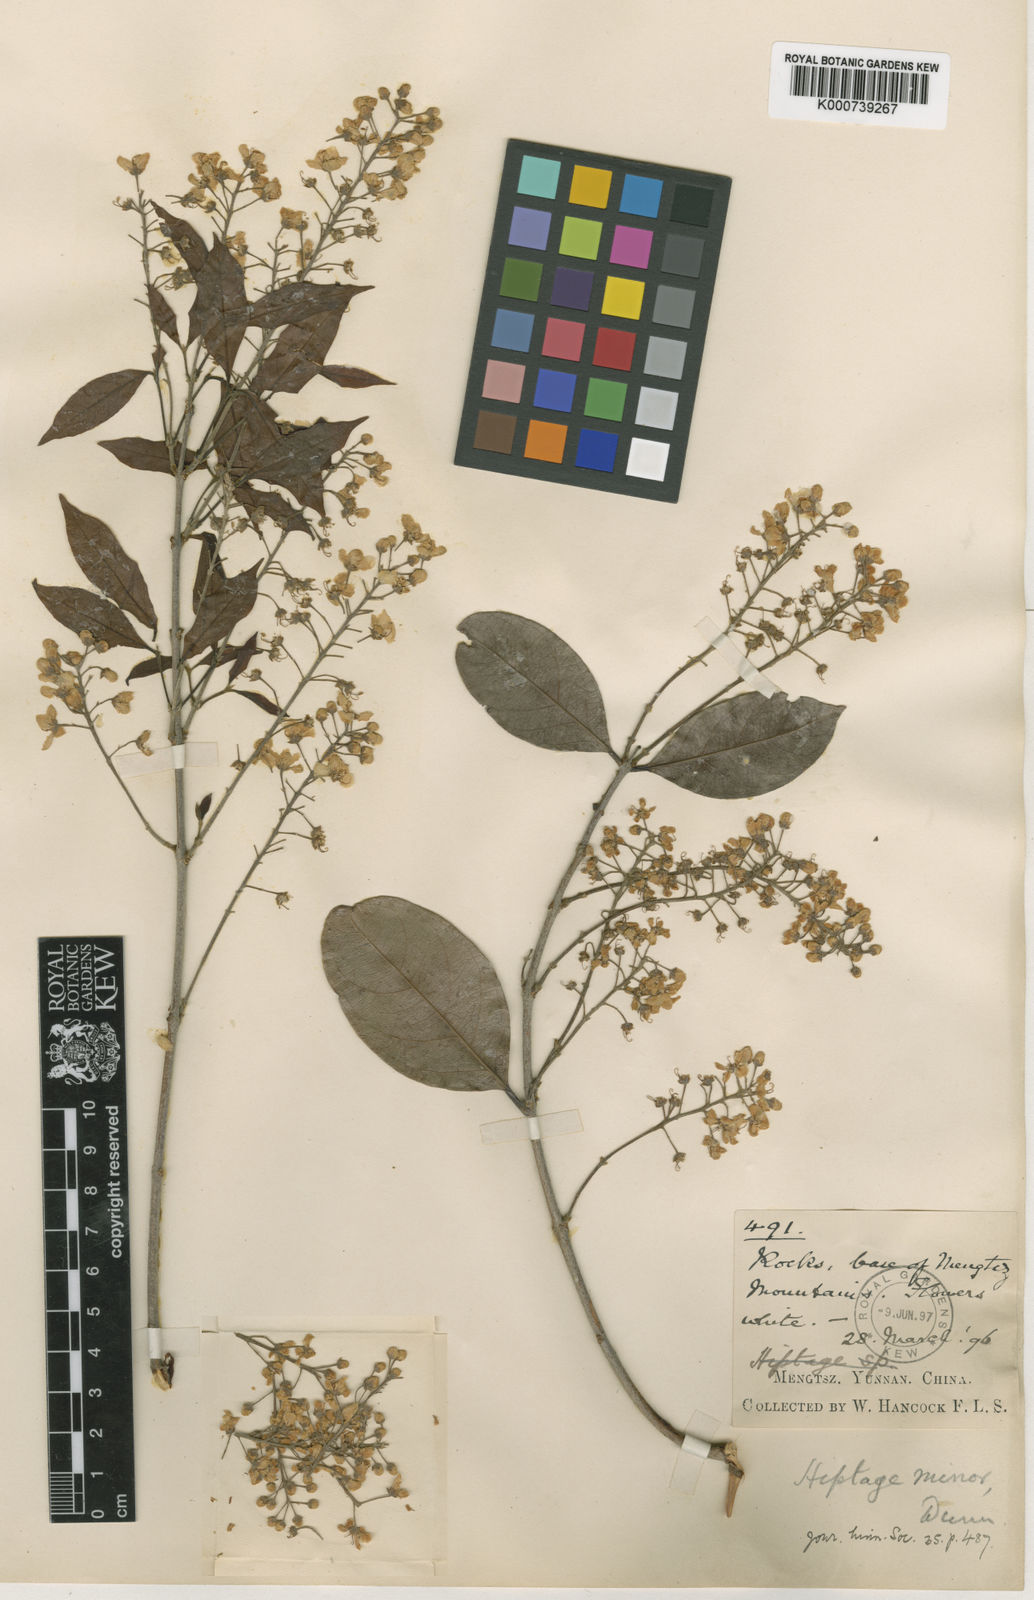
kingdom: Plantae
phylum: Tracheophyta
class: Magnoliopsida
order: Malpighiales
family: Malpighiaceae
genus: Hiptage
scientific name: Hiptage minor
